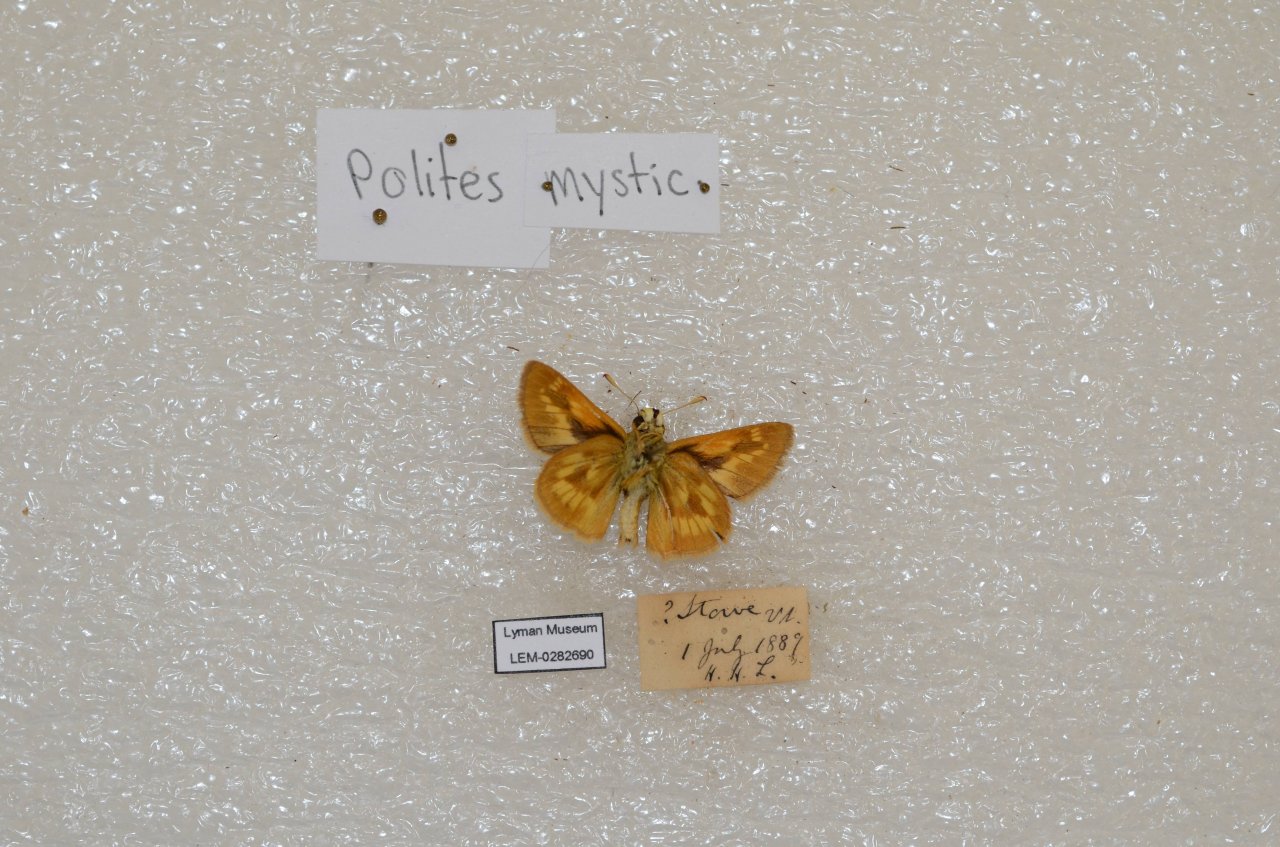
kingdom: Animalia
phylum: Arthropoda
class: Insecta
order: Lepidoptera
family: Hesperiidae
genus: Polites
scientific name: Polites
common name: Long Dash Skipper
